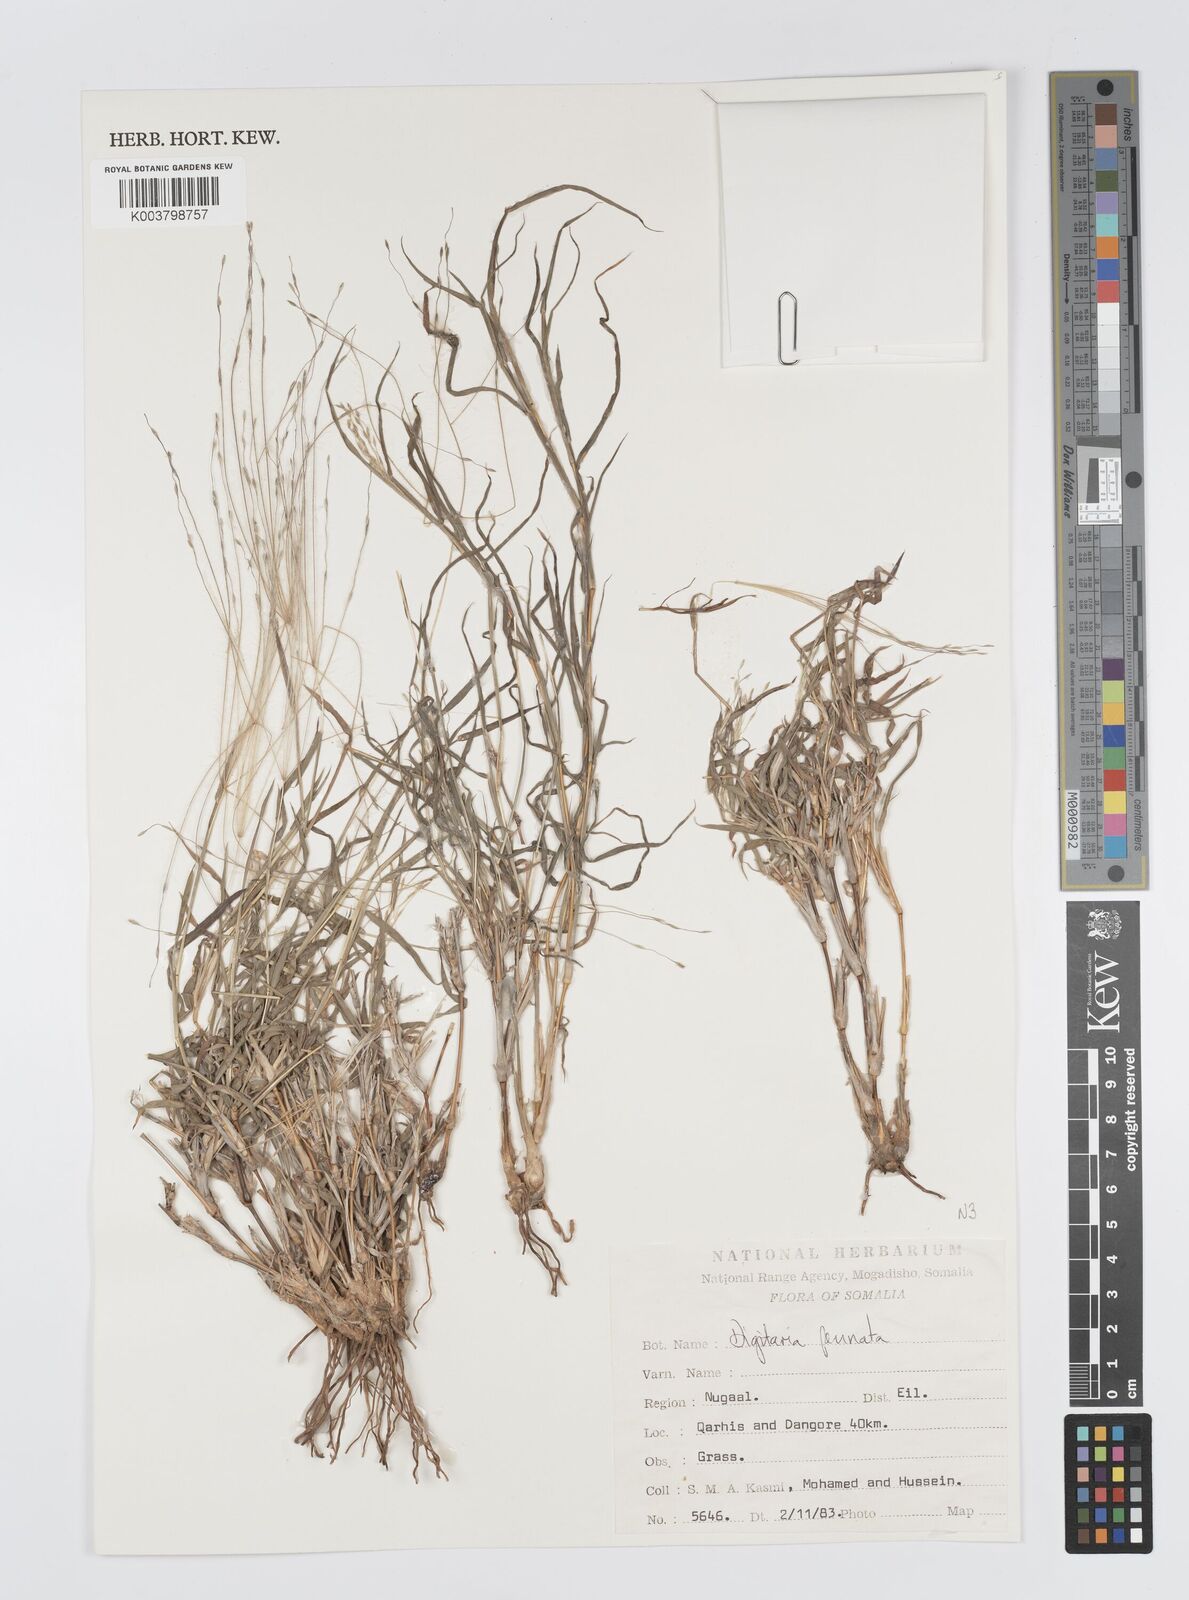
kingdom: Plantae
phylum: Tracheophyta
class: Liliopsida
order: Poales
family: Poaceae
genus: Digitaria
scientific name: Digitaria pennata
